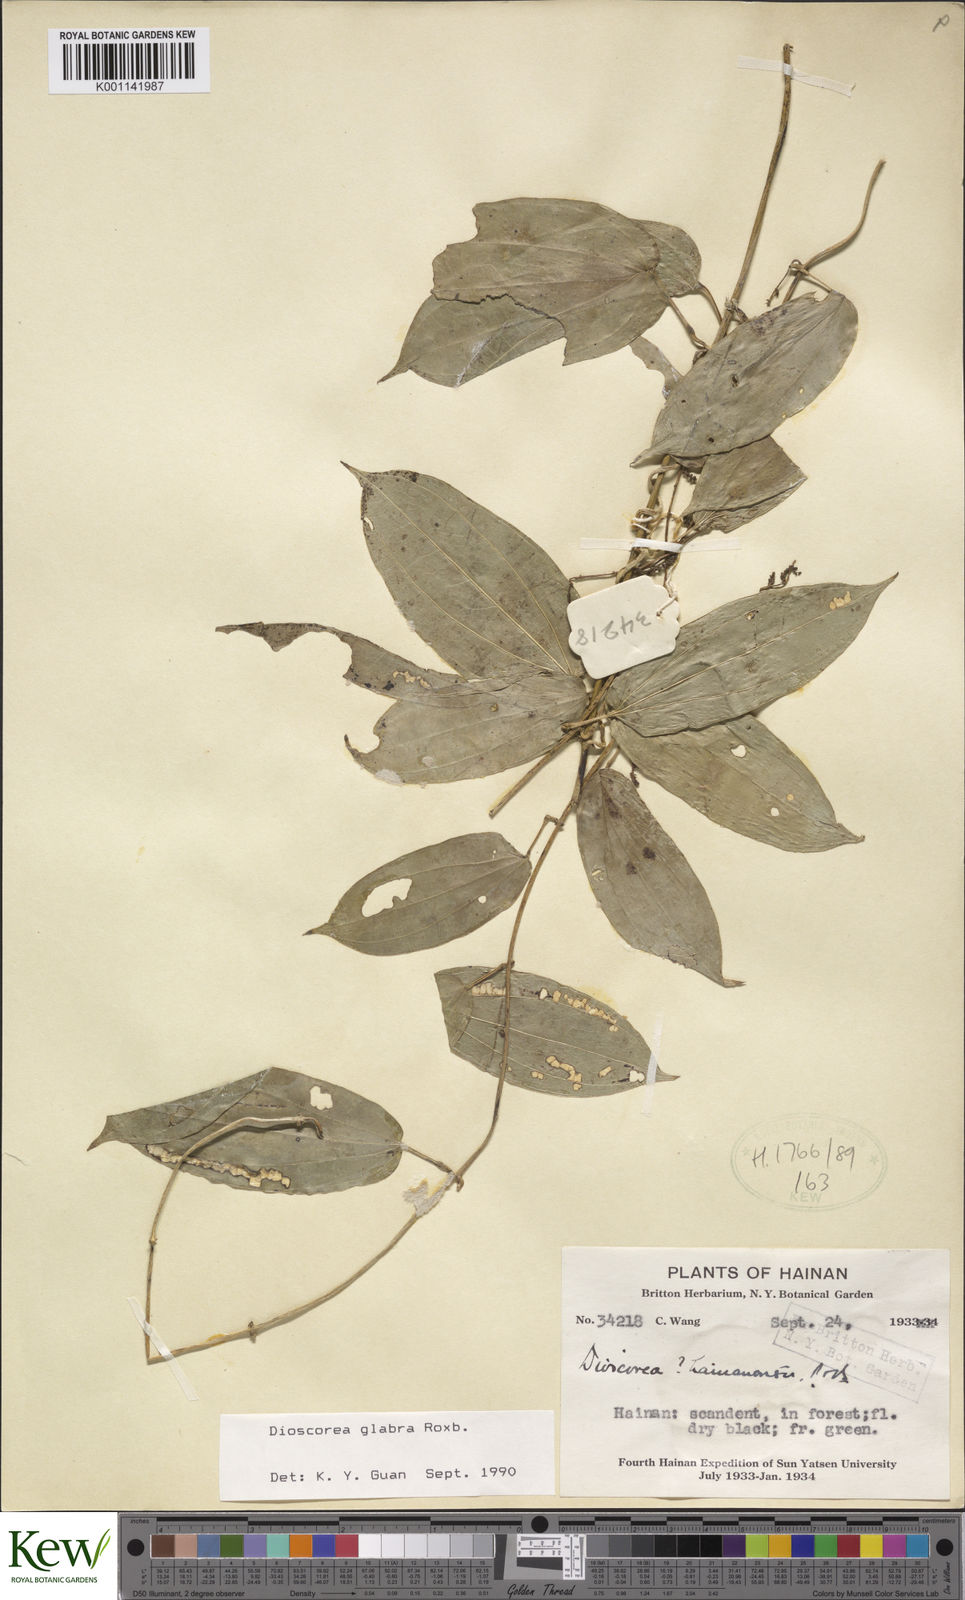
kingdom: Plantae
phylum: Tracheophyta
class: Liliopsida
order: Dioscoreales
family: Dioscoreaceae
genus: Dioscorea
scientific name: Dioscorea glabra
